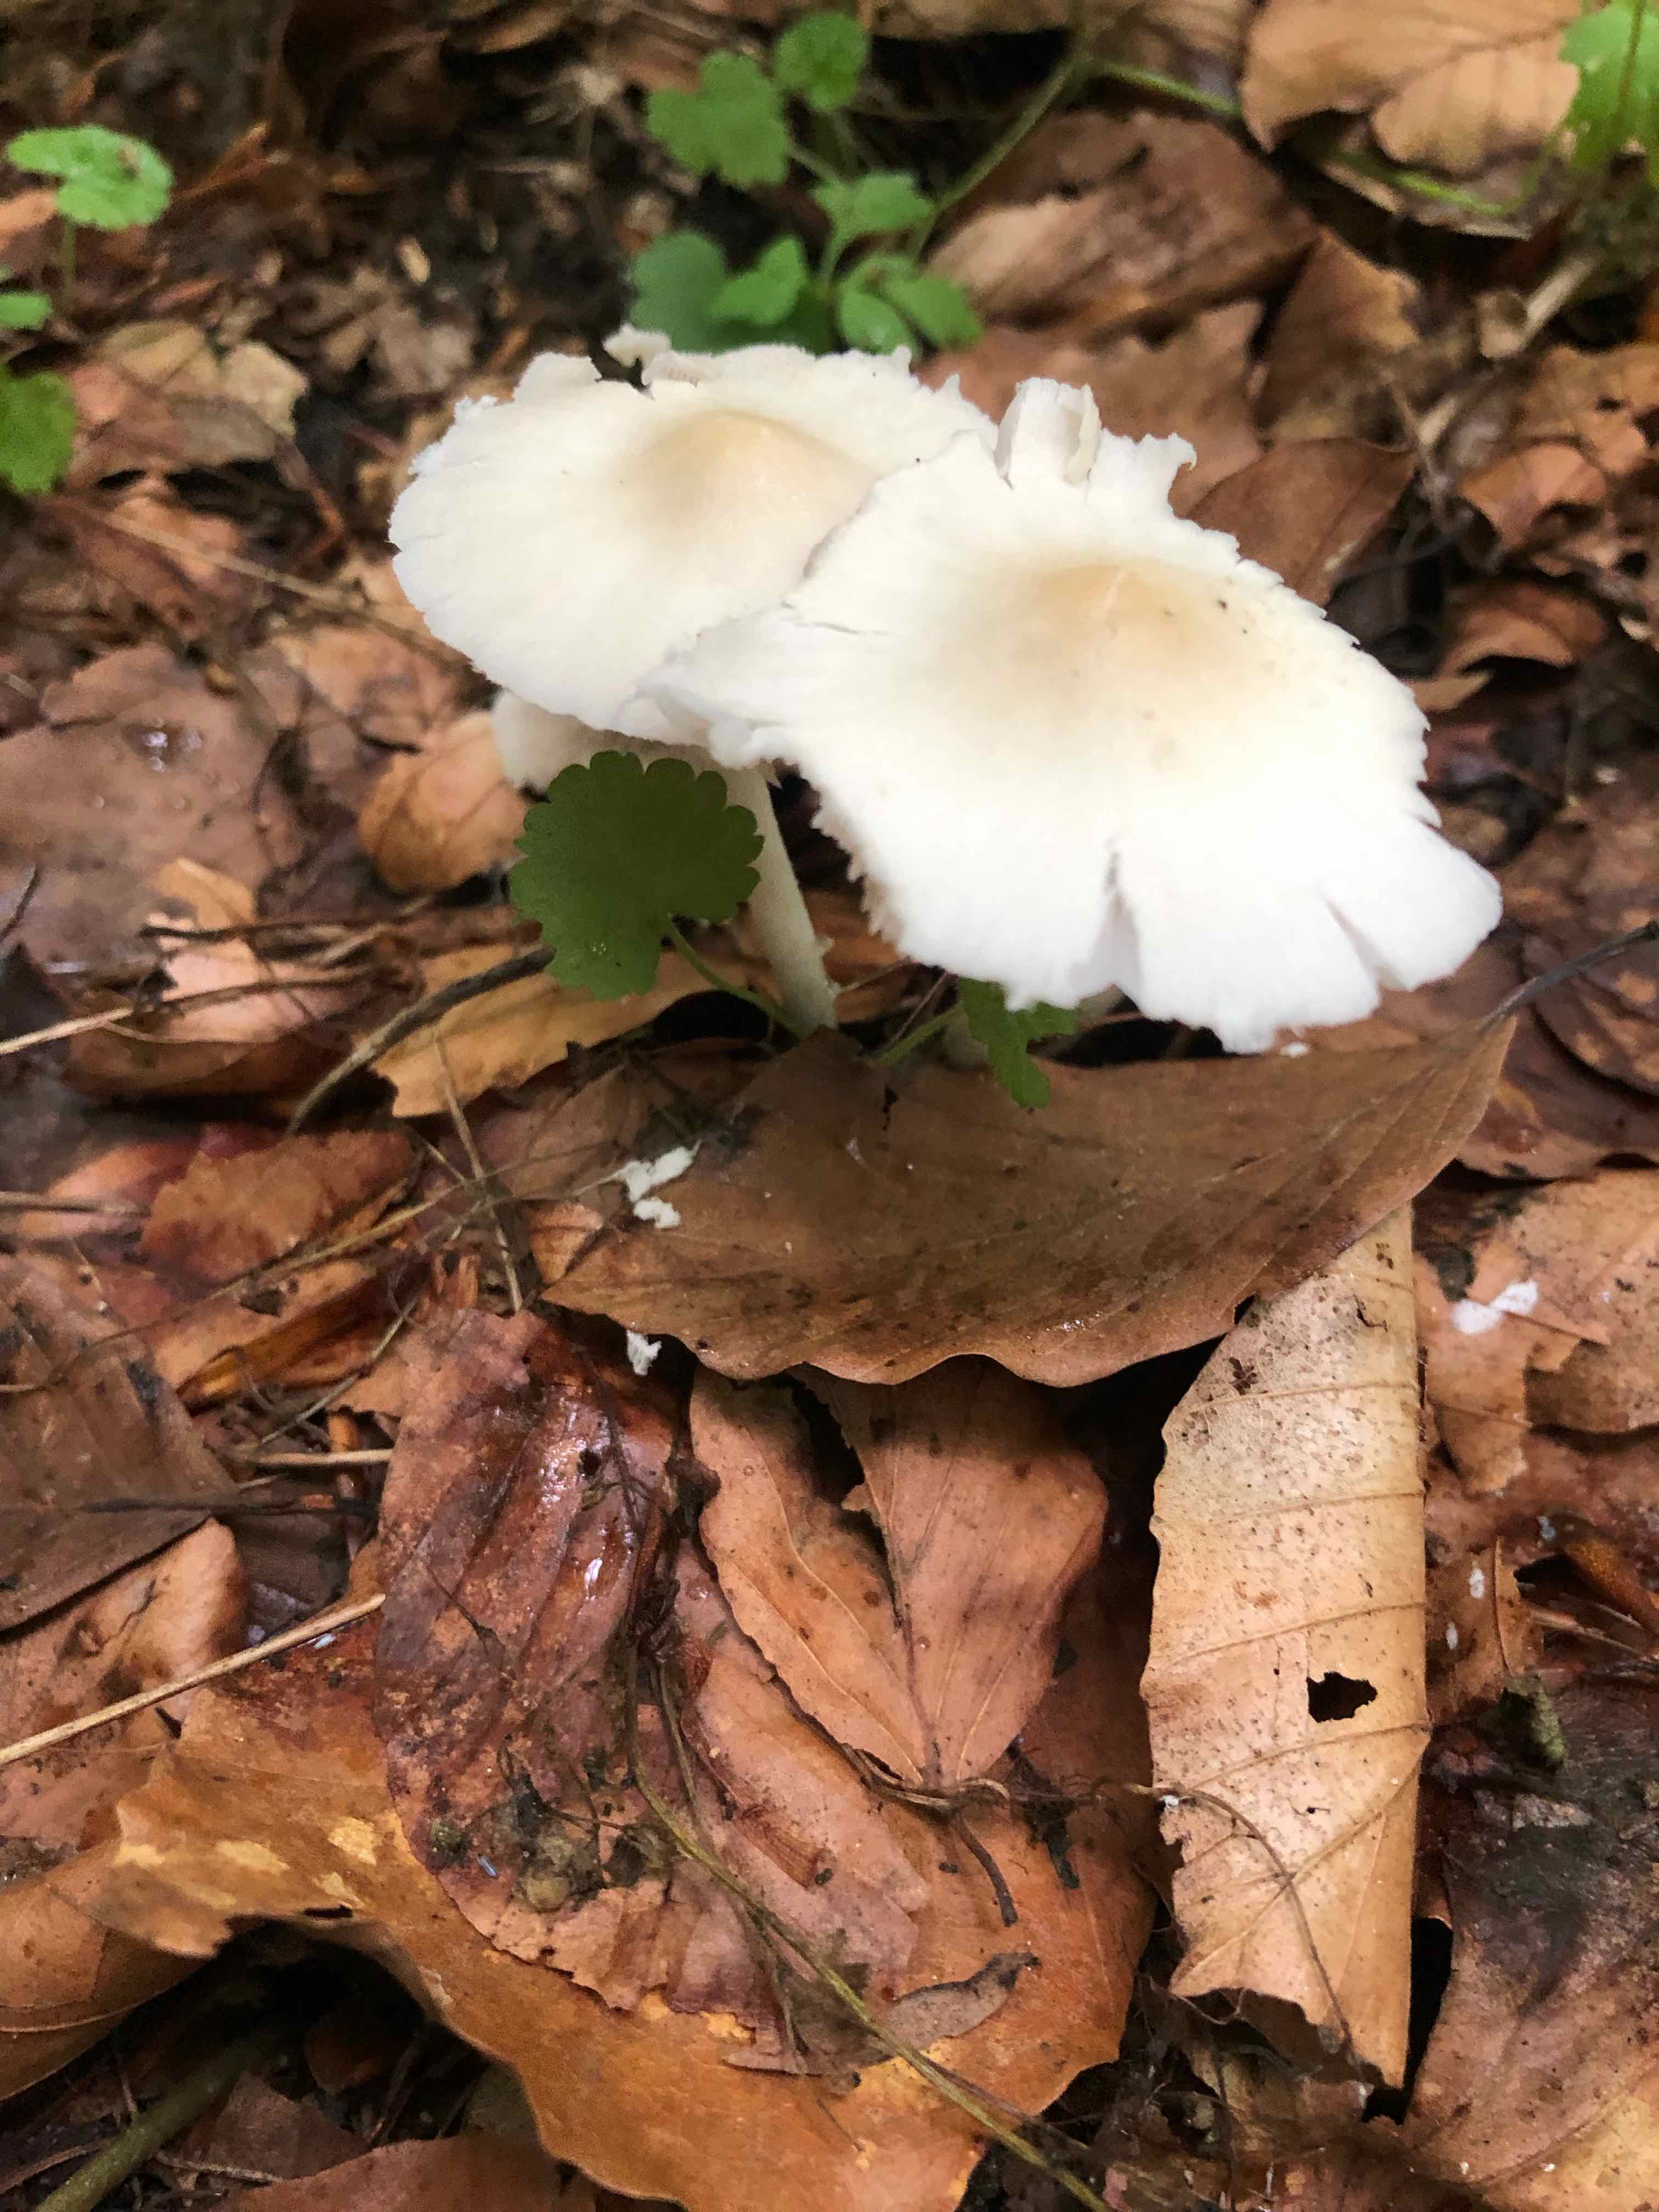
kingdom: Fungi
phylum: Basidiomycota
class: Agaricomycetes
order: Agaricales
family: Psathyrellaceae
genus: Candolleomyces
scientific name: Candolleomyces candolleanus
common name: Candolles mørkhat
